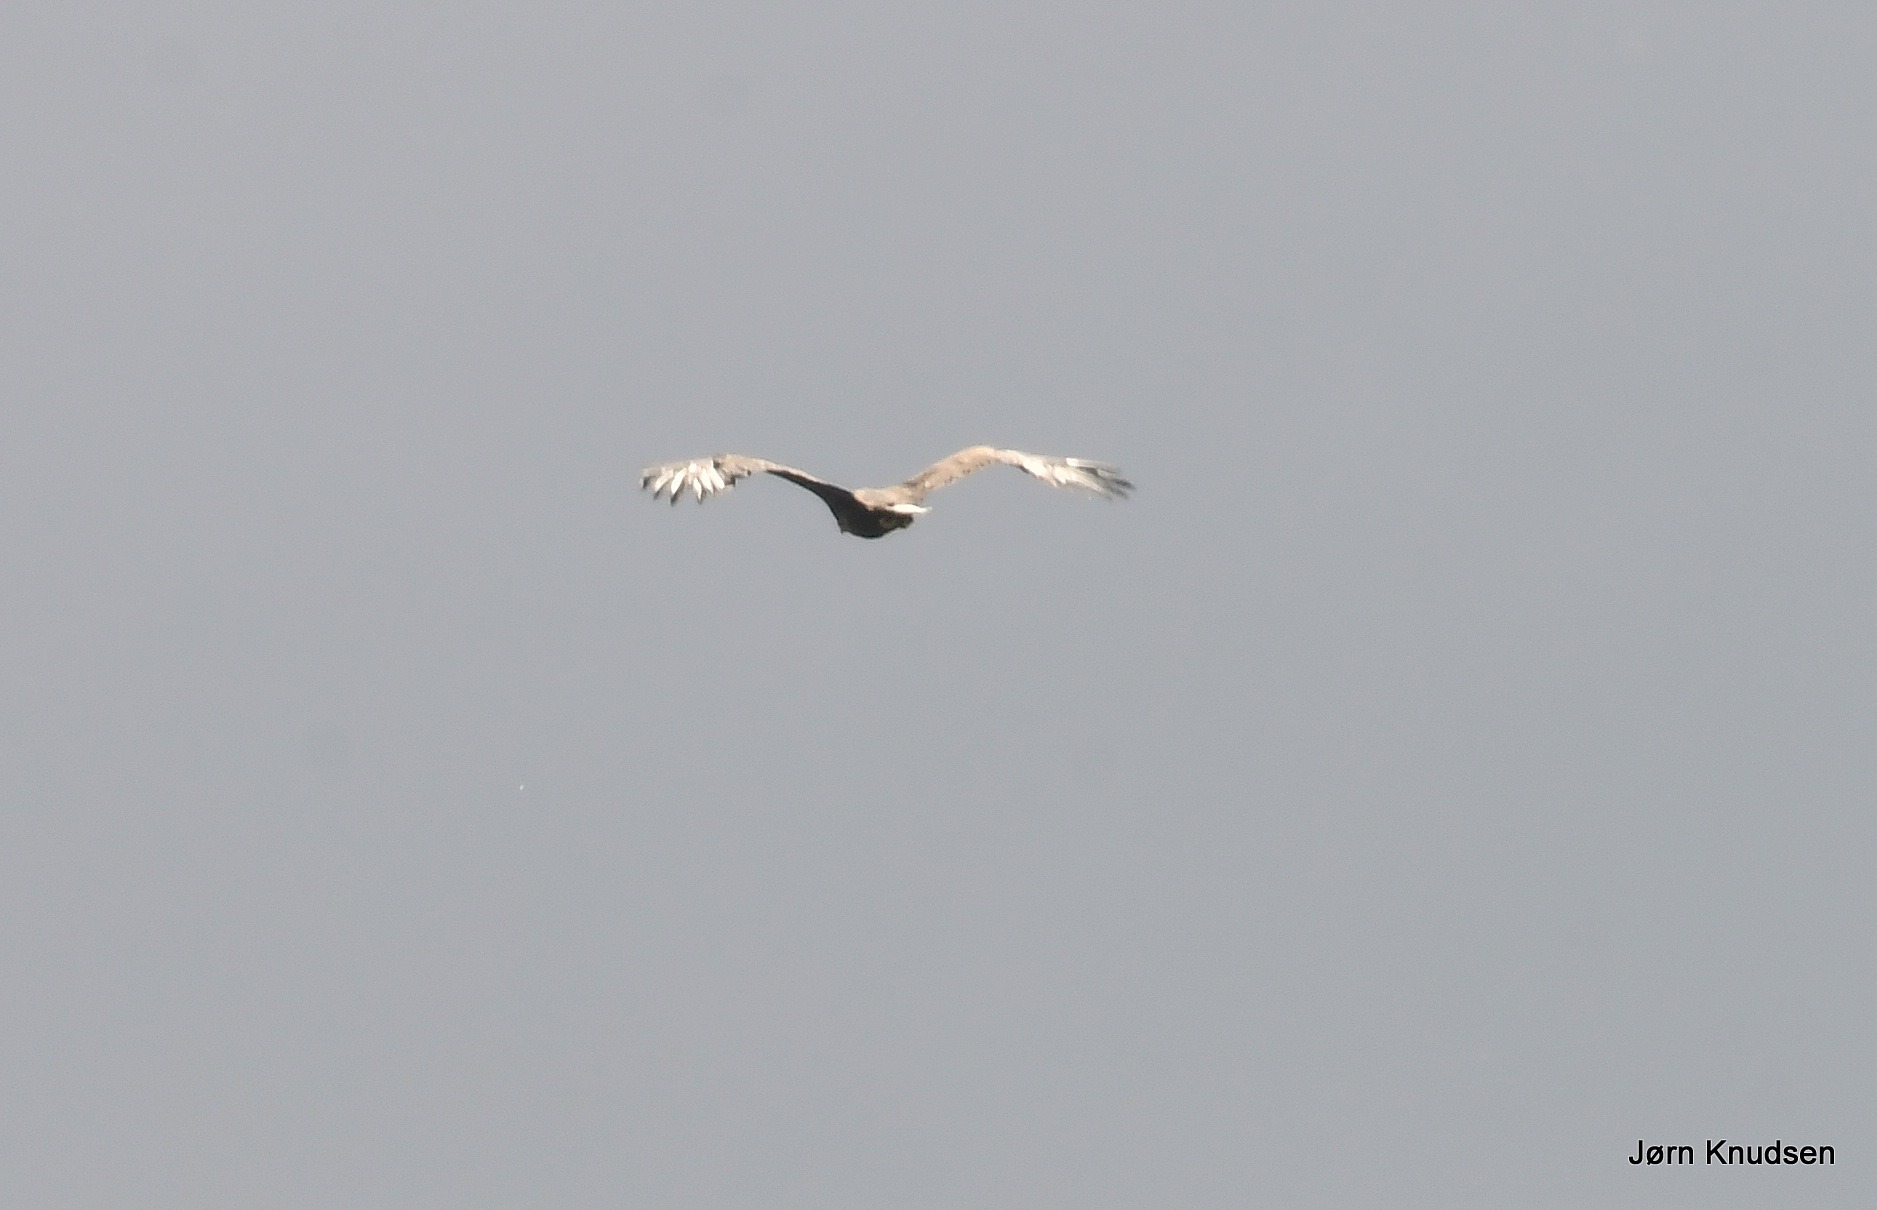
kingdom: Animalia
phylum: Chordata
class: Aves
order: Accipitriformes
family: Accipitridae
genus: Haliaeetus
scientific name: Haliaeetus albicilla
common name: Havørn
